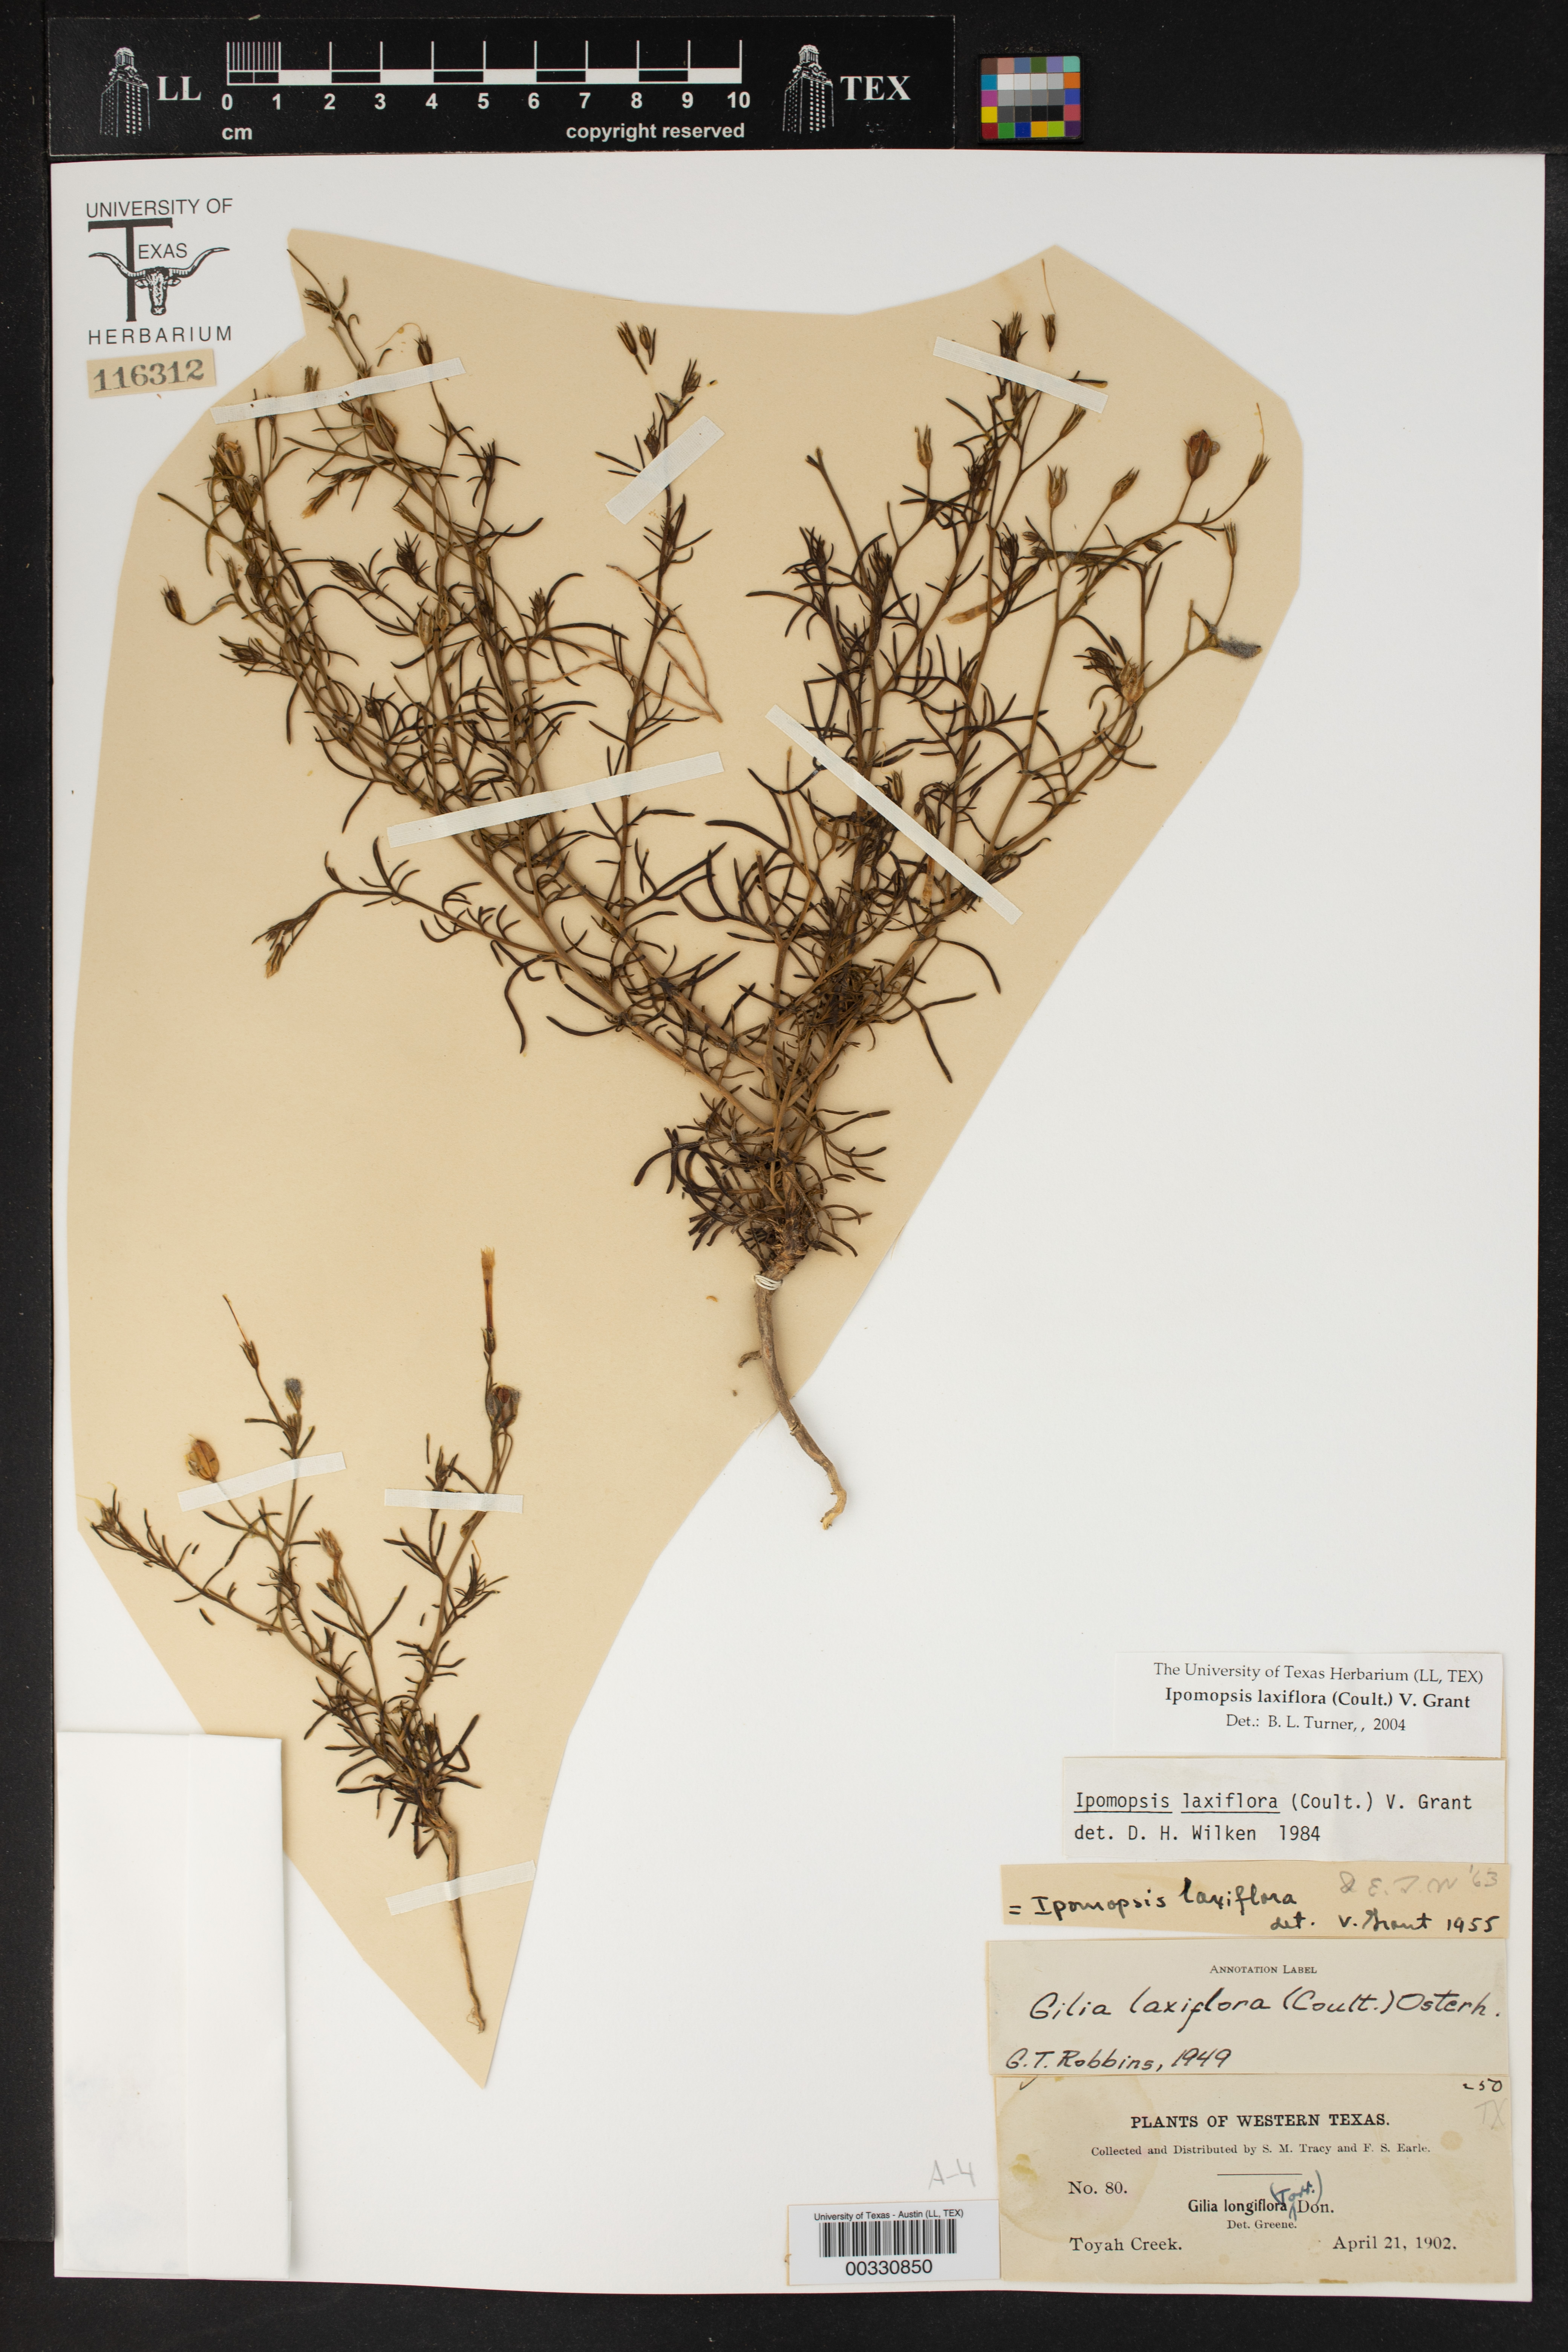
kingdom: Plantae
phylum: Tracheophyta
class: Magnoliopsida
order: Ericales
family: Polemoniaceae
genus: Ipomopsis
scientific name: Ipomopsis laxiflora
